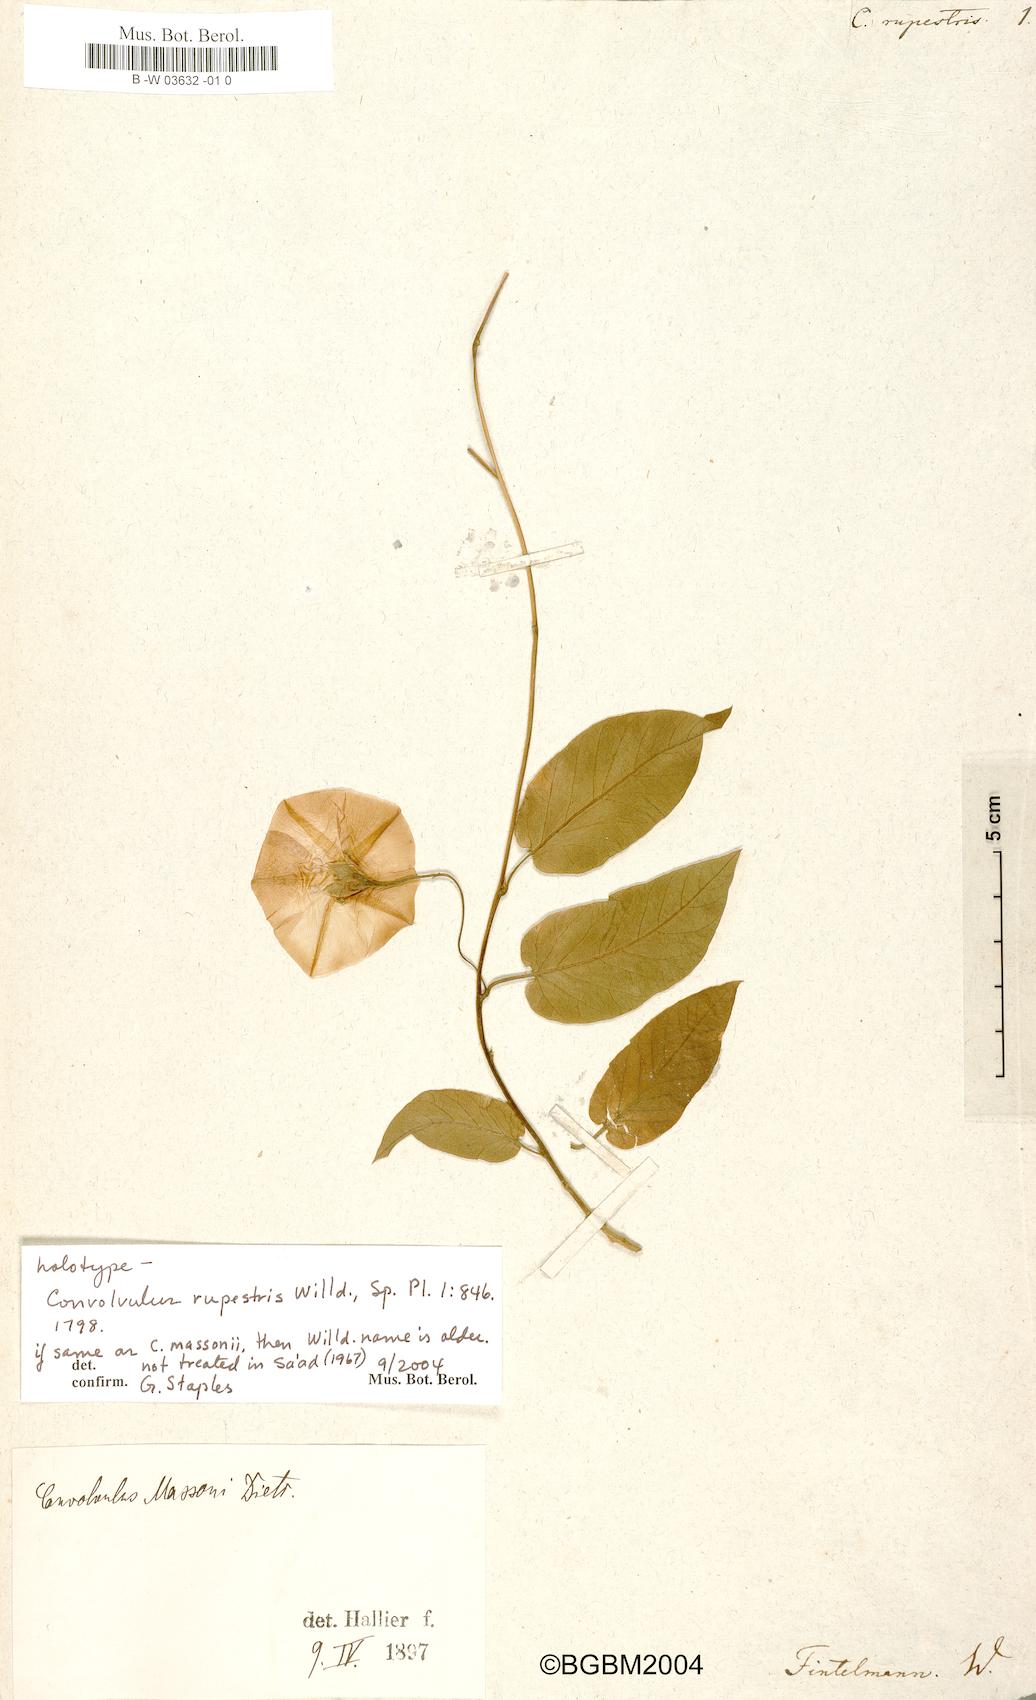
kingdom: Plantae
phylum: Tracheophyta
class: Magnoliopsida
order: Solanales
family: Convolvulaceae
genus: Convolvulus
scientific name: Convolvulus rupestris
